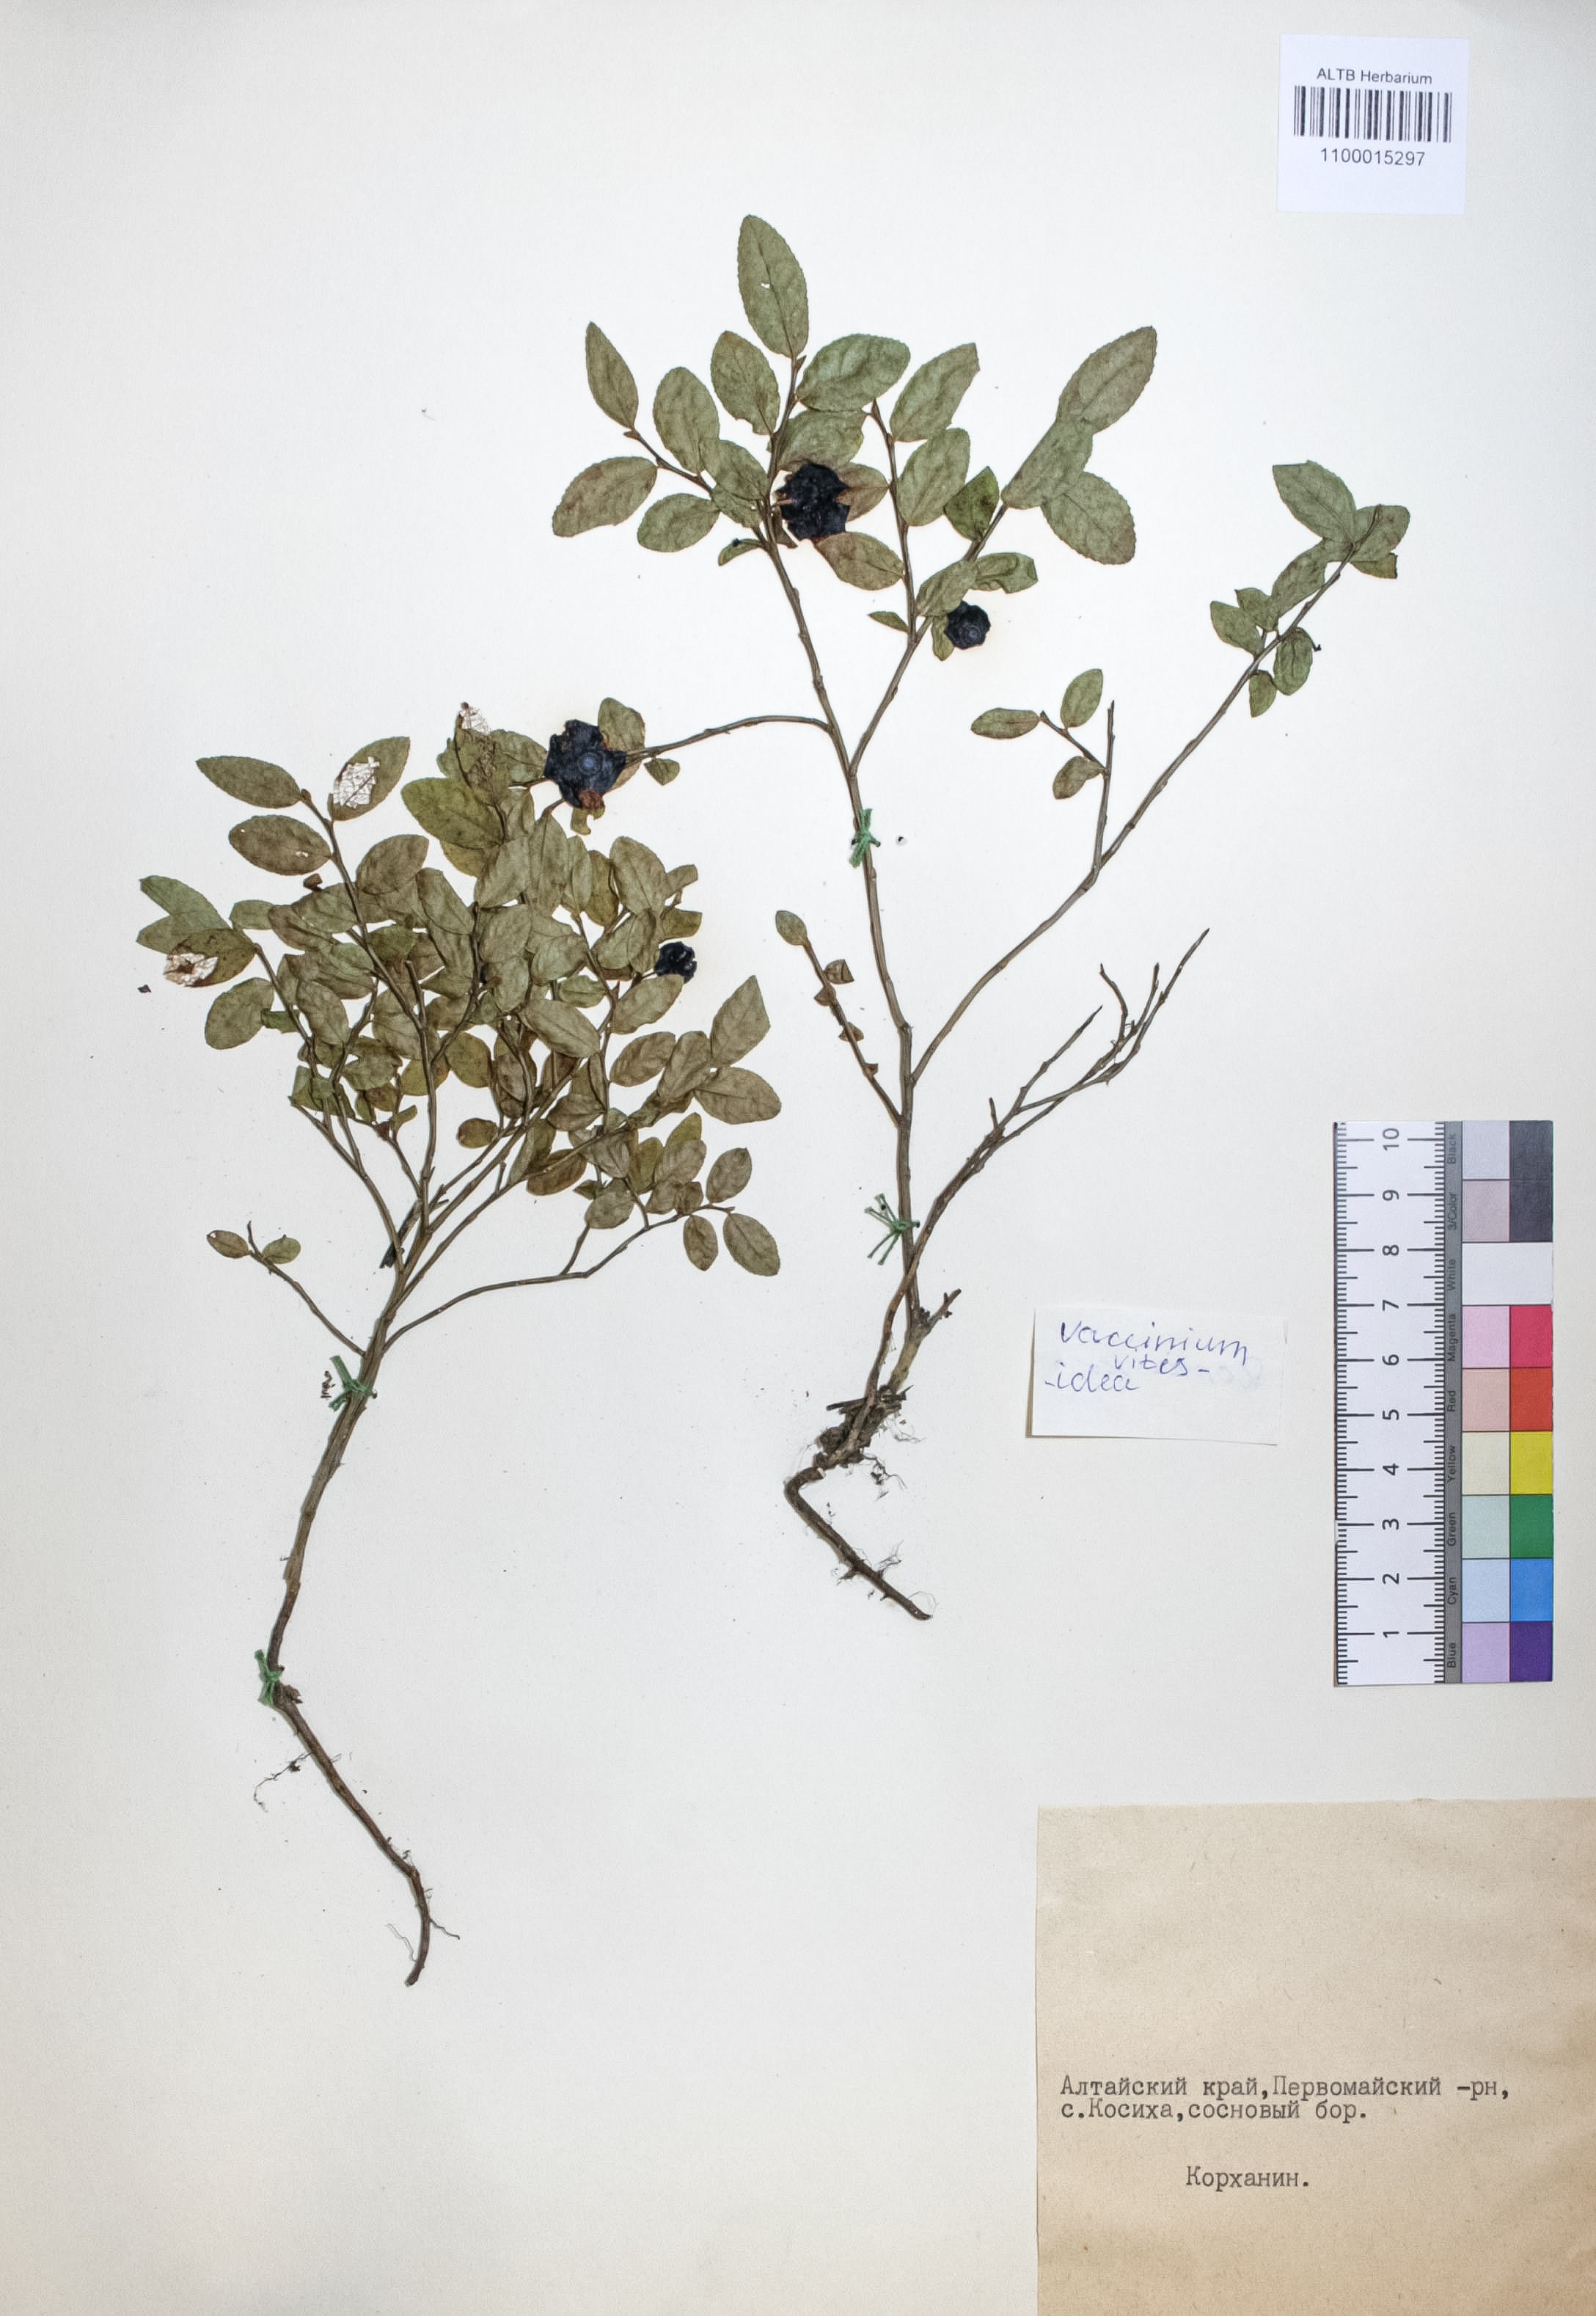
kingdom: Plantae
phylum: Tracheophyta
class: Magnoliopsida
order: Ericales
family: Ericaceae
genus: Vaccinium
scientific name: Vaccinium vitis-idaea
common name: Cowberry
